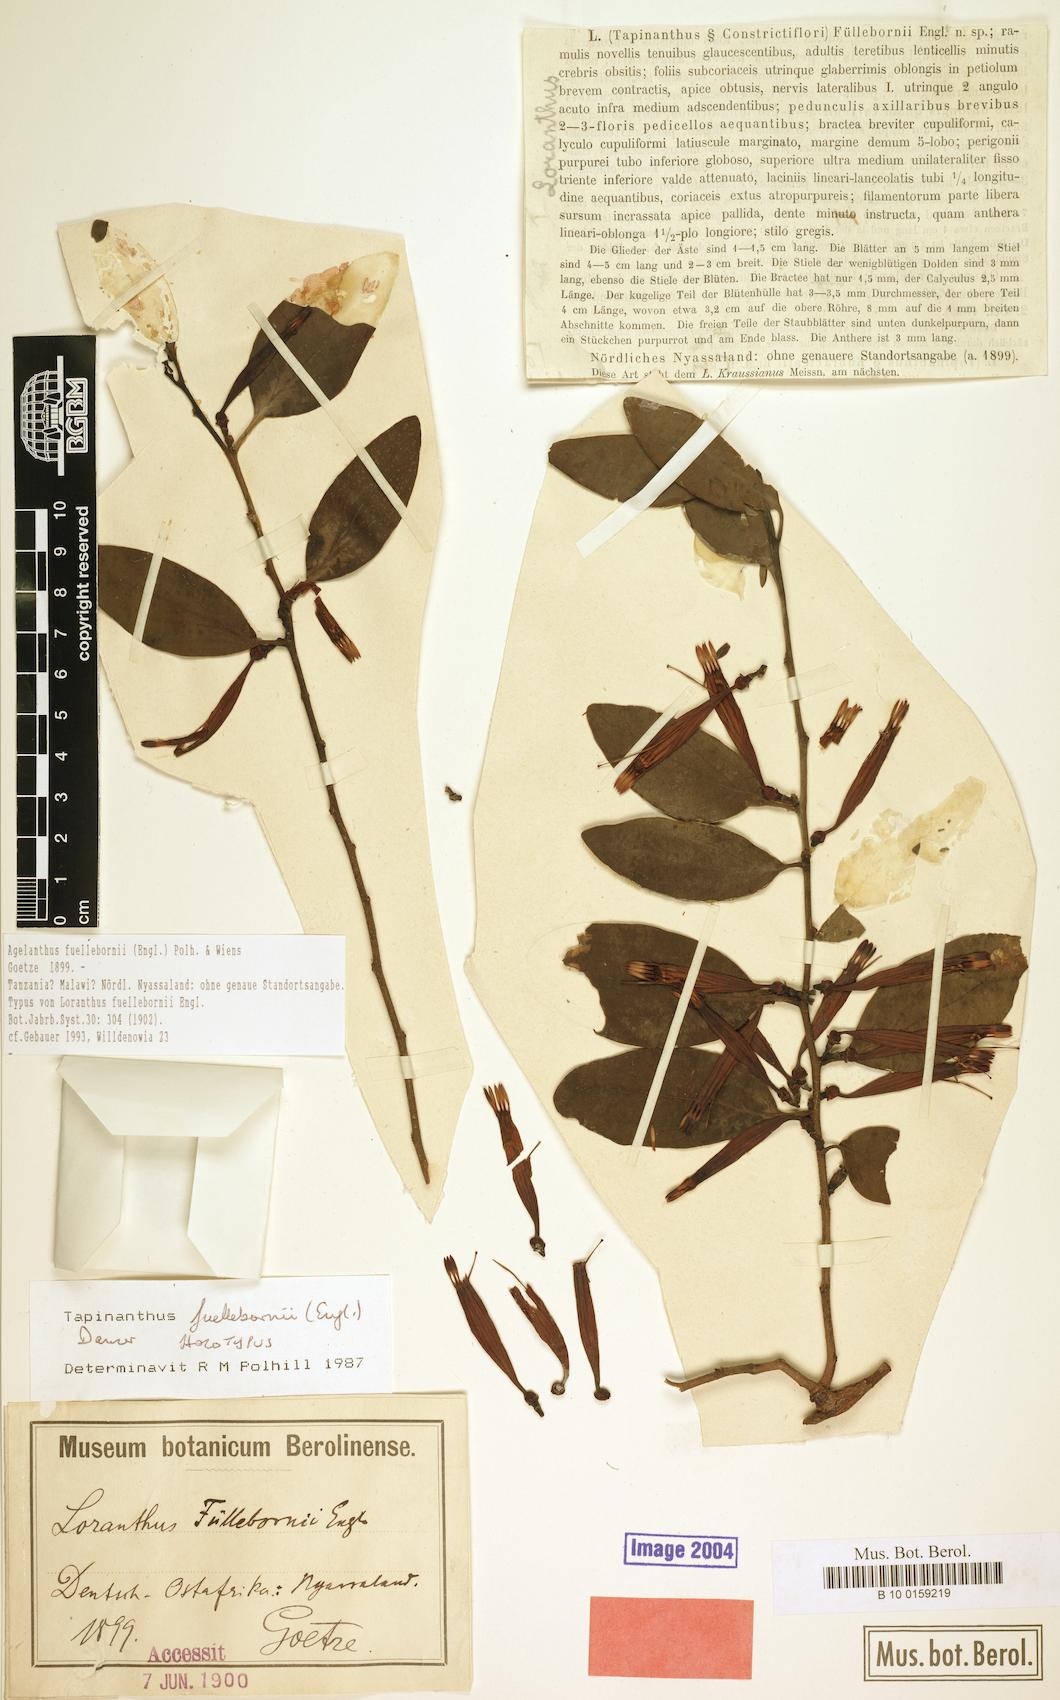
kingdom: Plantae
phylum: Tracheophyta
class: Magnoliopsida
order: Santalales
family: Loranthaceae
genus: Agelanthus
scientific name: Agelanthus fuellebornii
